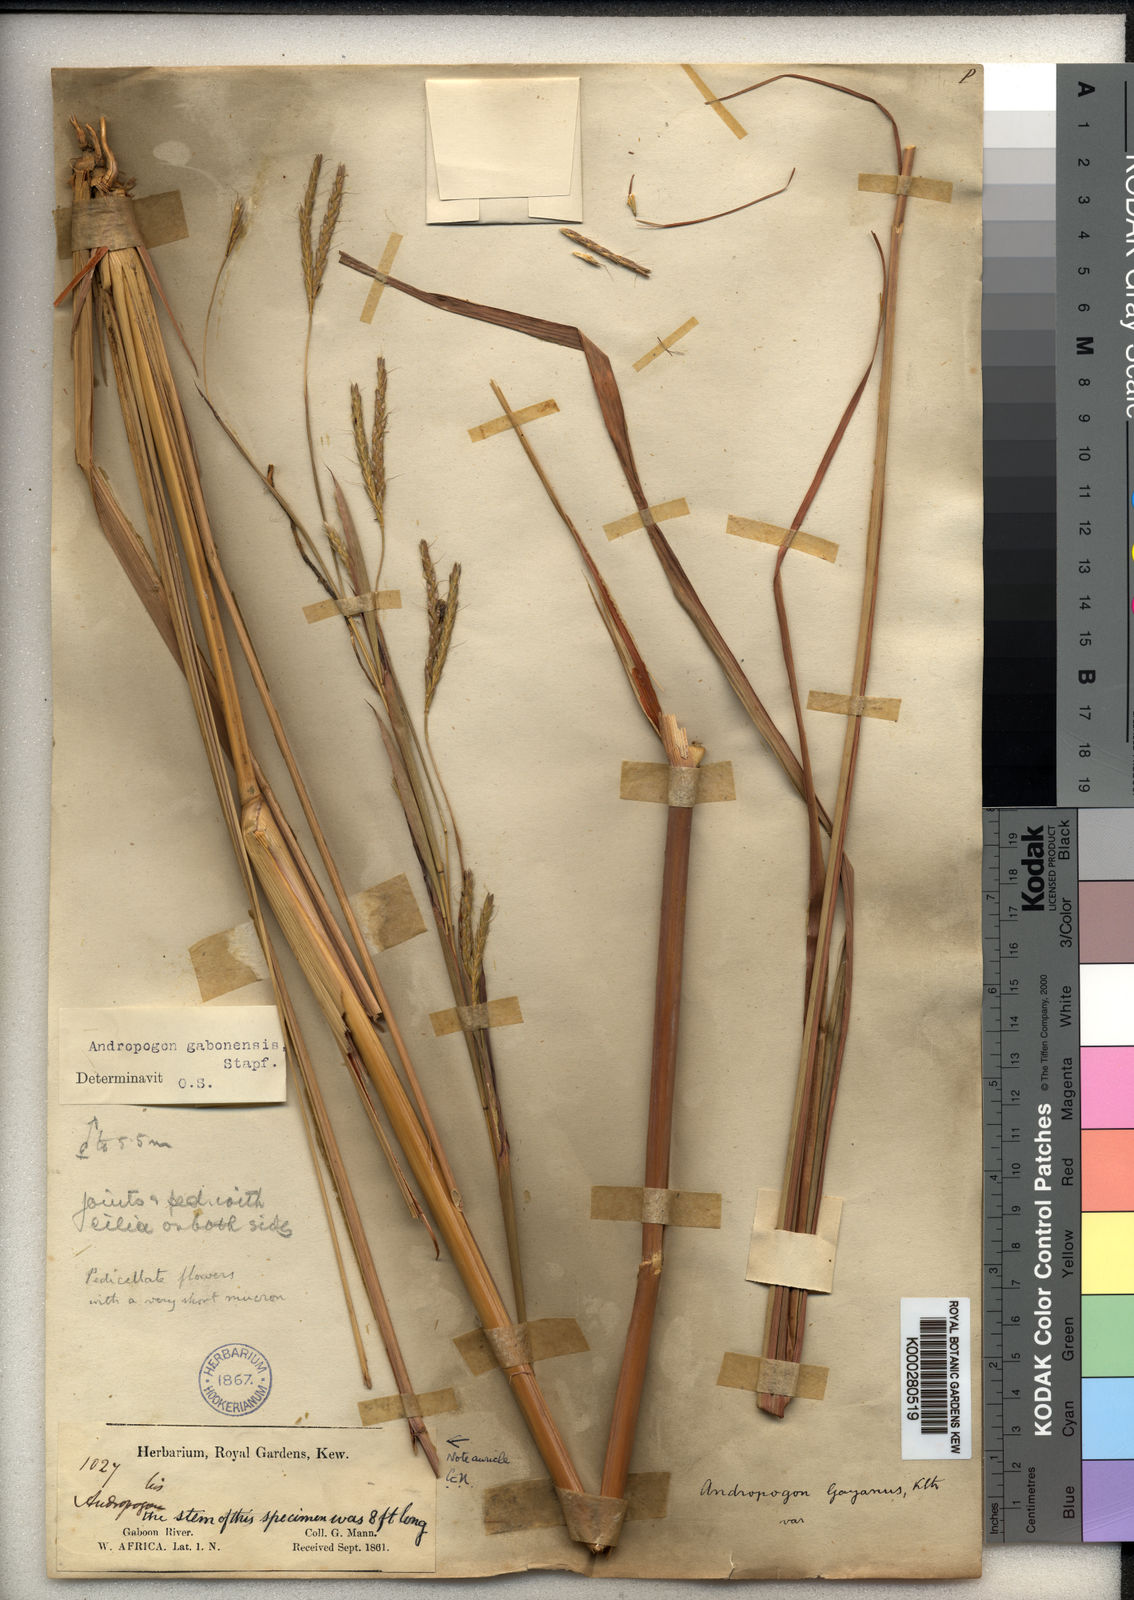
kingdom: Plantae
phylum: Tracheophyta
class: Liliopsida
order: Poales
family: Poaceae
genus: Andropogon
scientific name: Andropogon gabonensis
